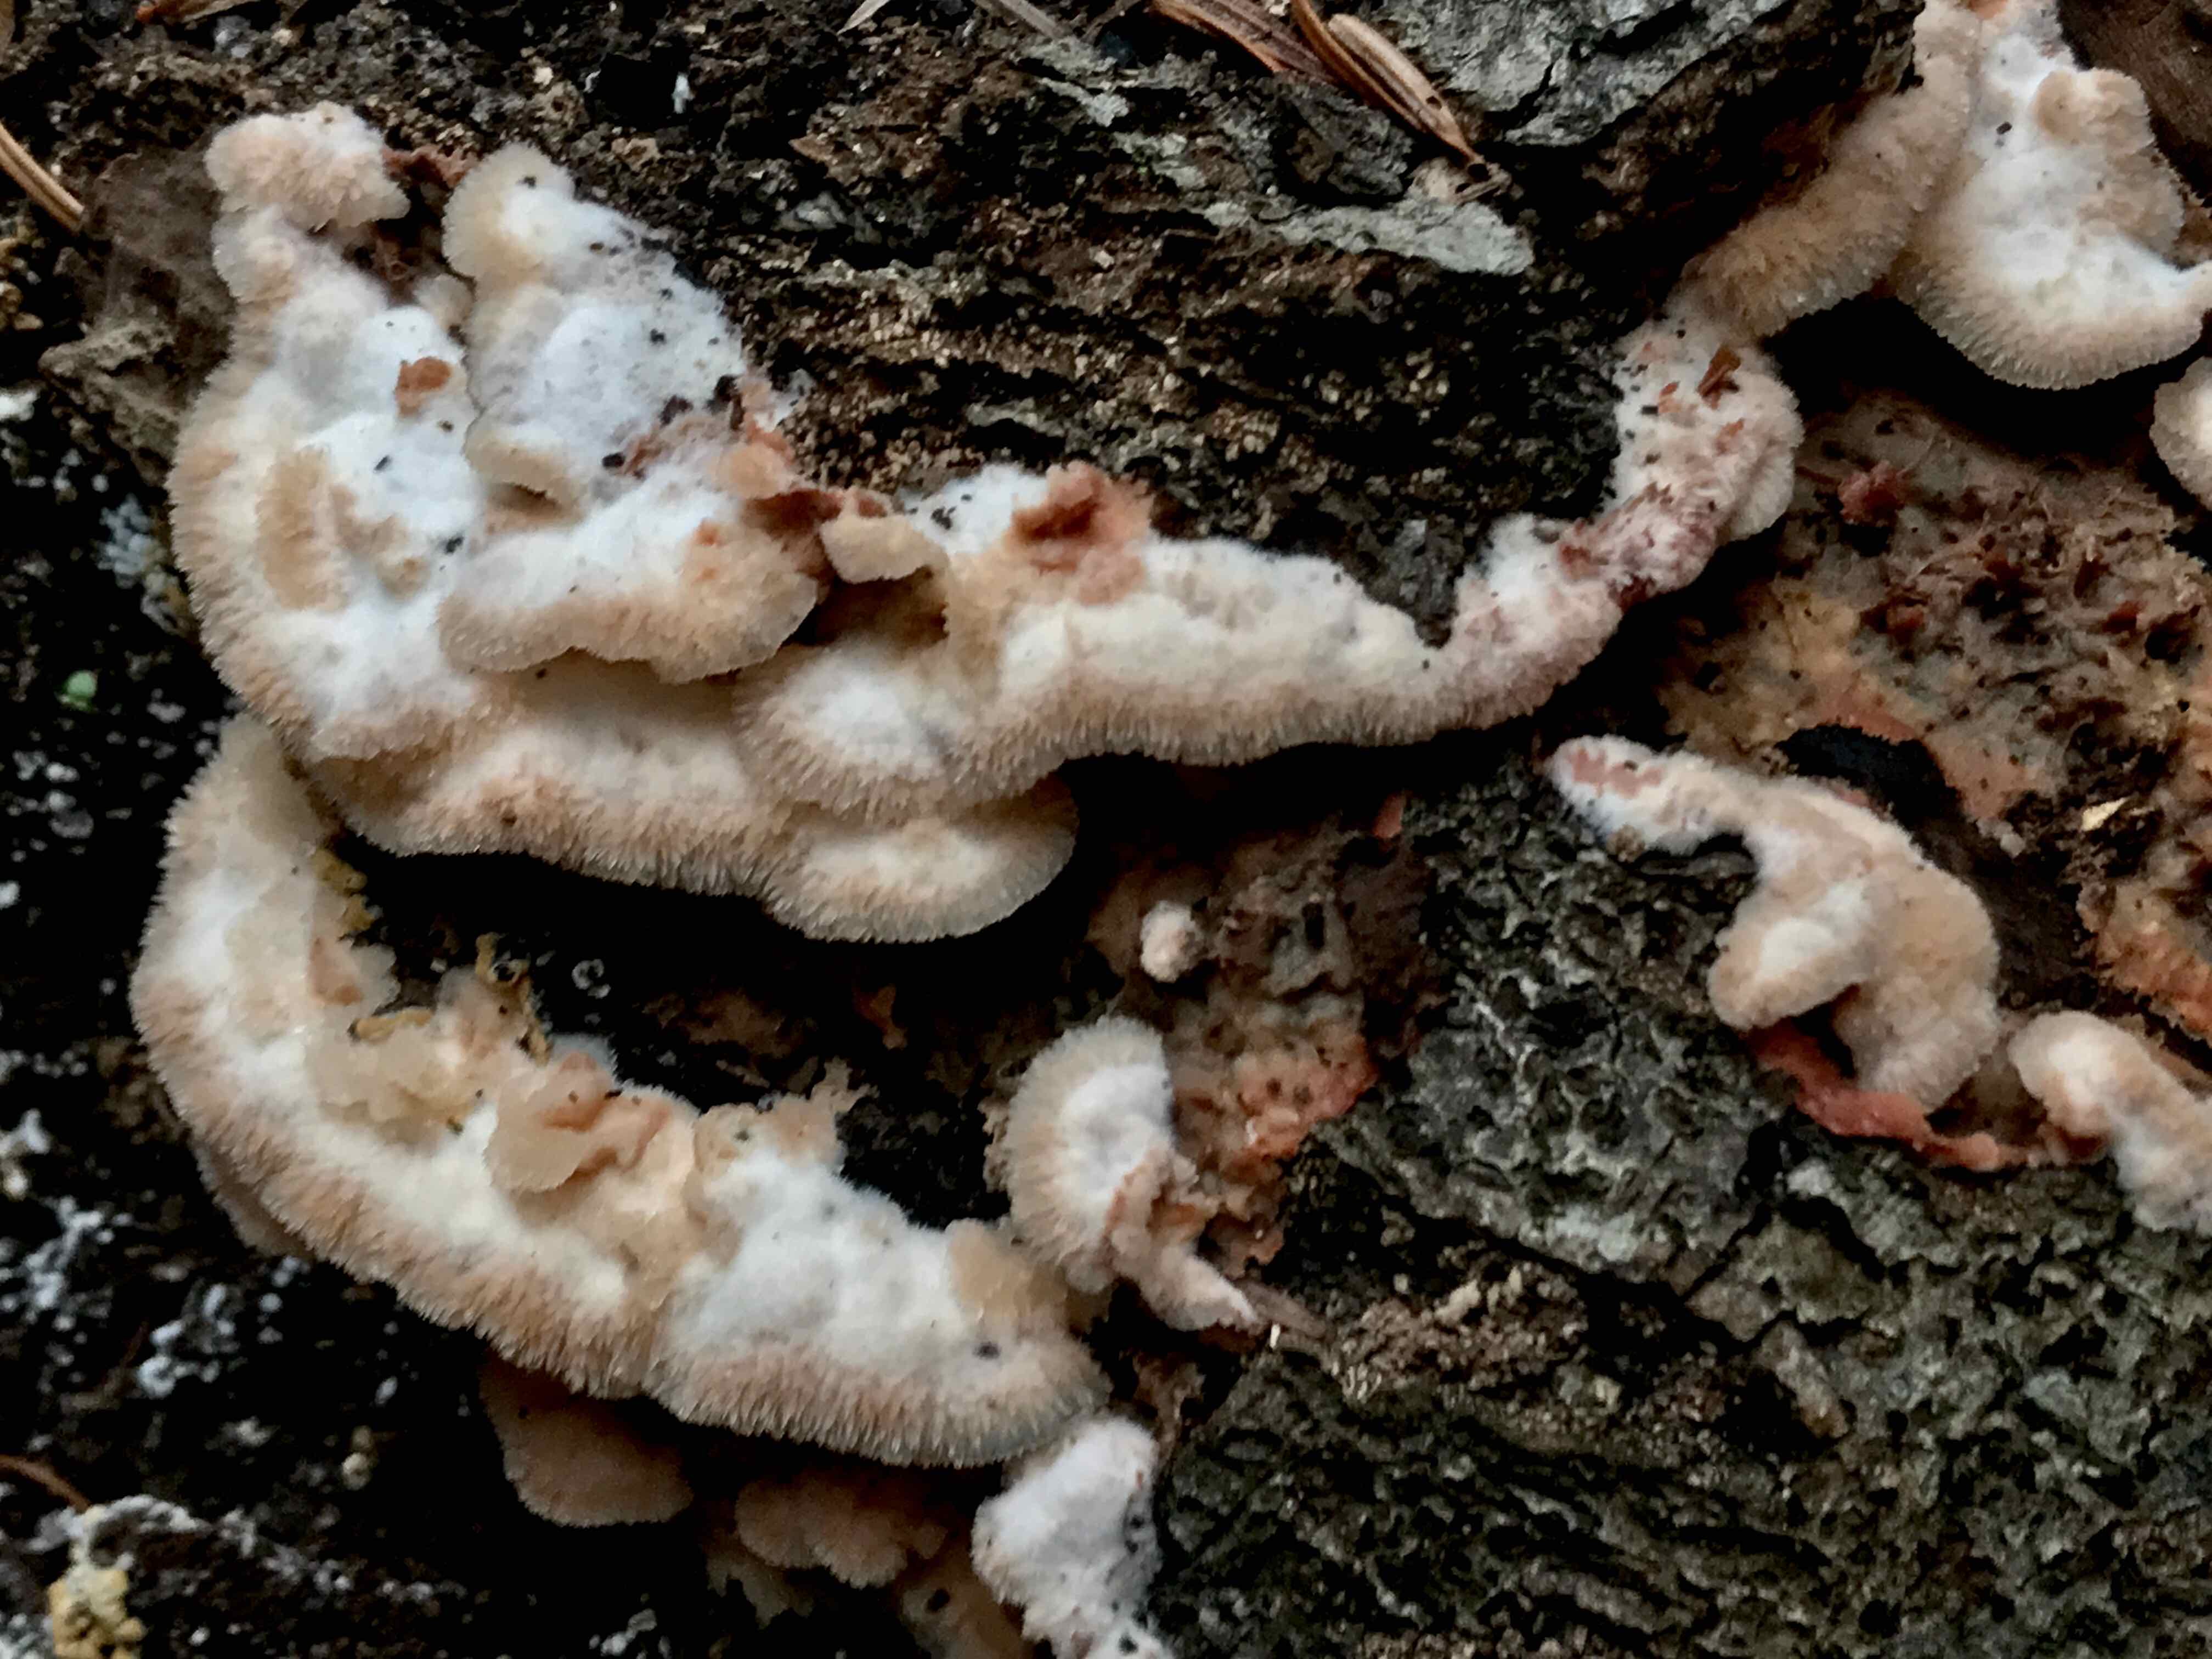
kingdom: Fungi
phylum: Basidiomycota
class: Agaricomycetes
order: Polyporales
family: Meruliaceae
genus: Phlebia
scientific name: Phlebia tremellosa
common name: bævrende åresvamp
